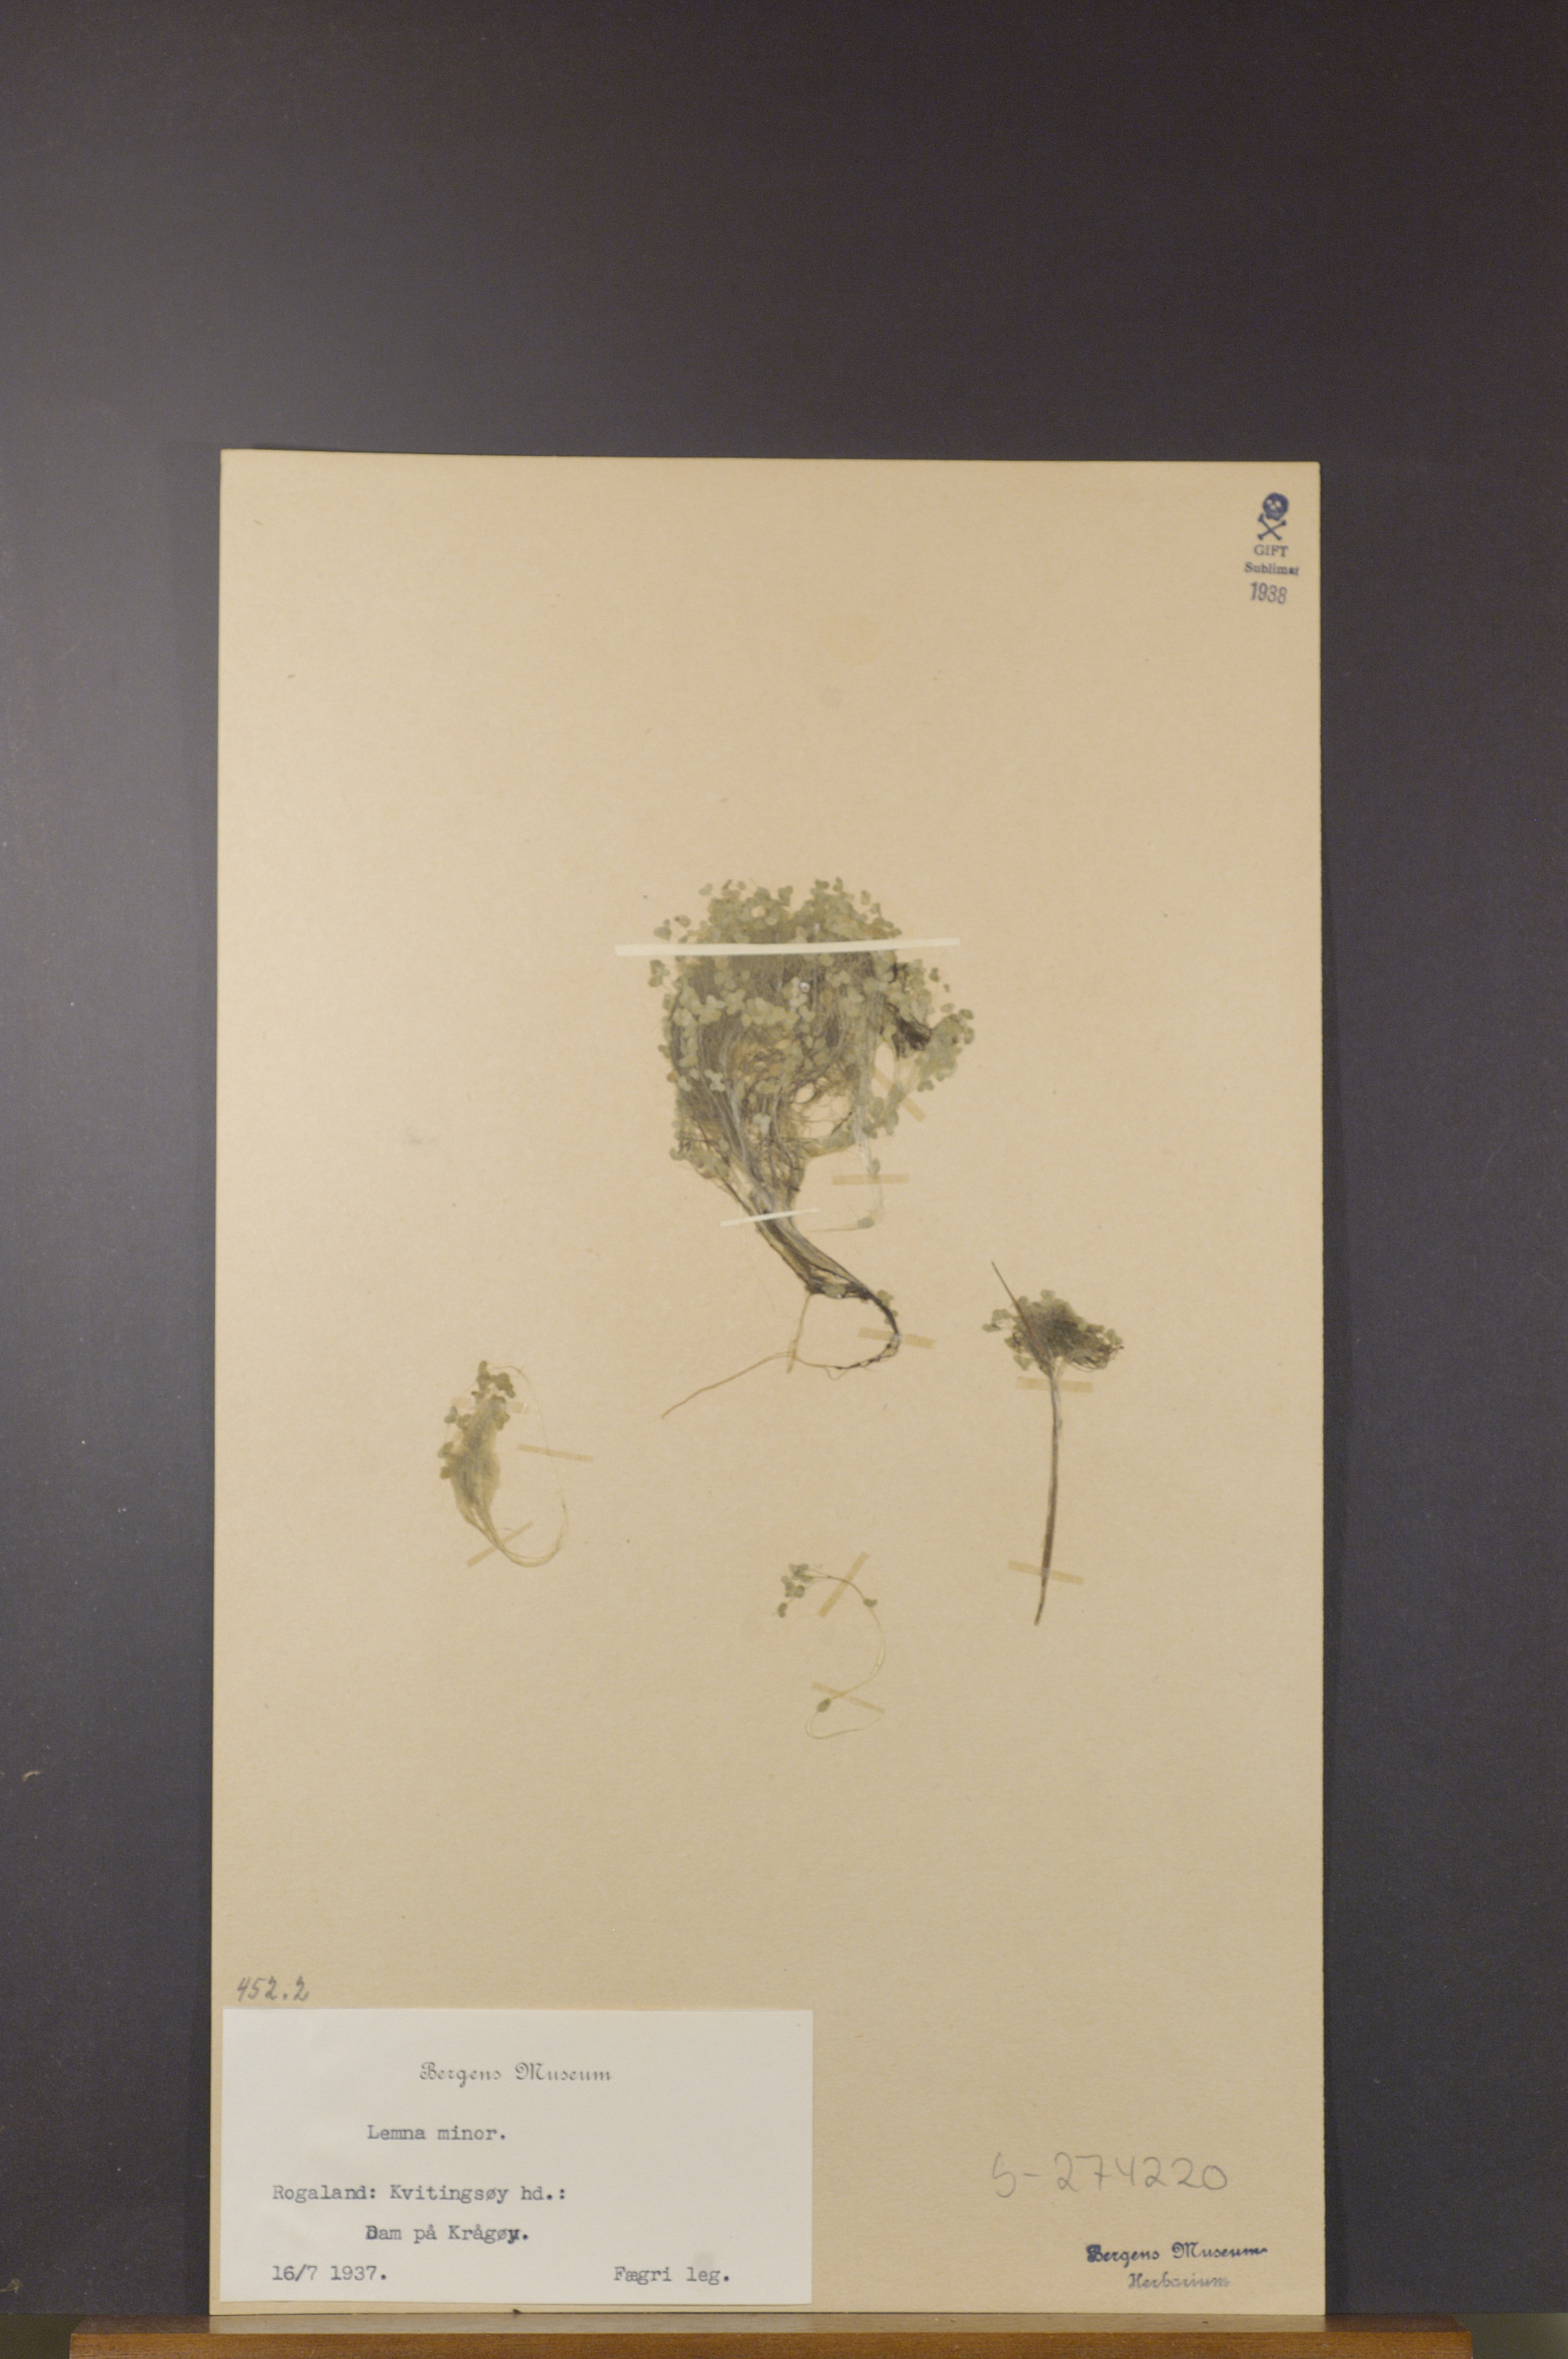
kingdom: Plantae
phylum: Tracheophyta
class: Liliopsida
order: Alismatales
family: Araceae
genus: Lemna
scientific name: Lemna minor
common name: Common duckweed
